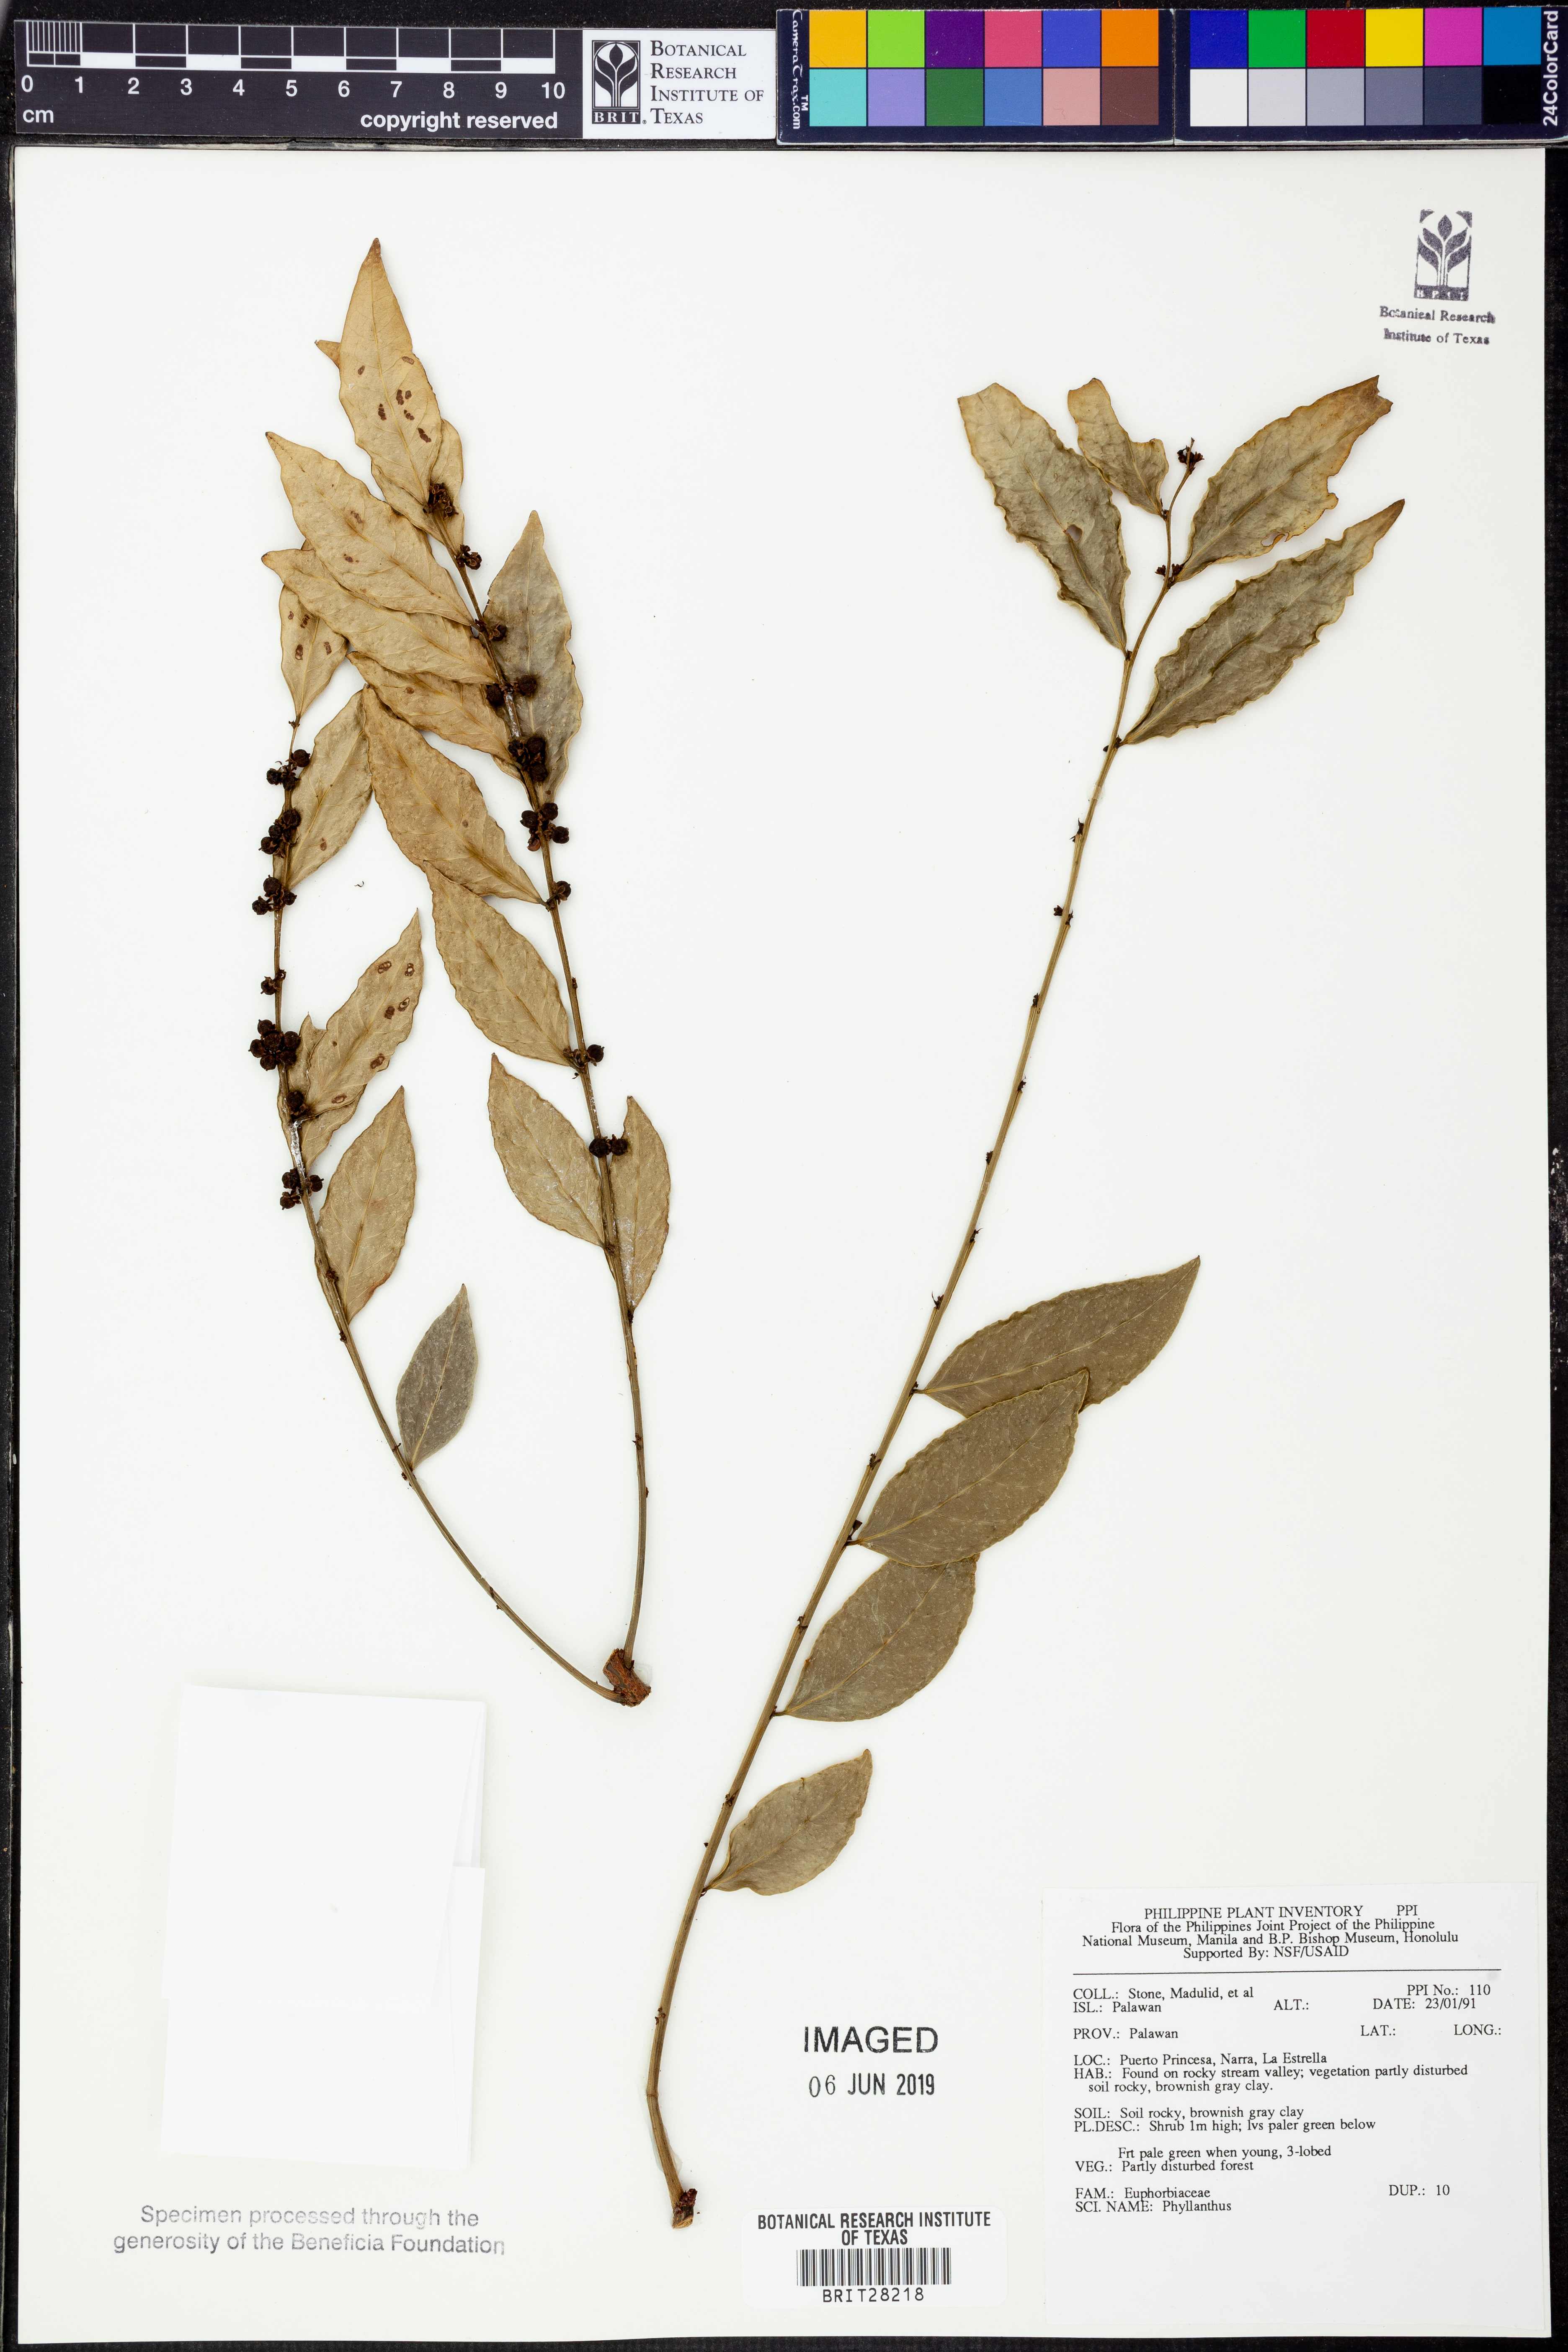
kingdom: Plantae
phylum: Tracheophyta
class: Magnoliopsida
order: Malpighiales
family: Phyllanthaceae
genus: Phyllanthus
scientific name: Phyllanthus
